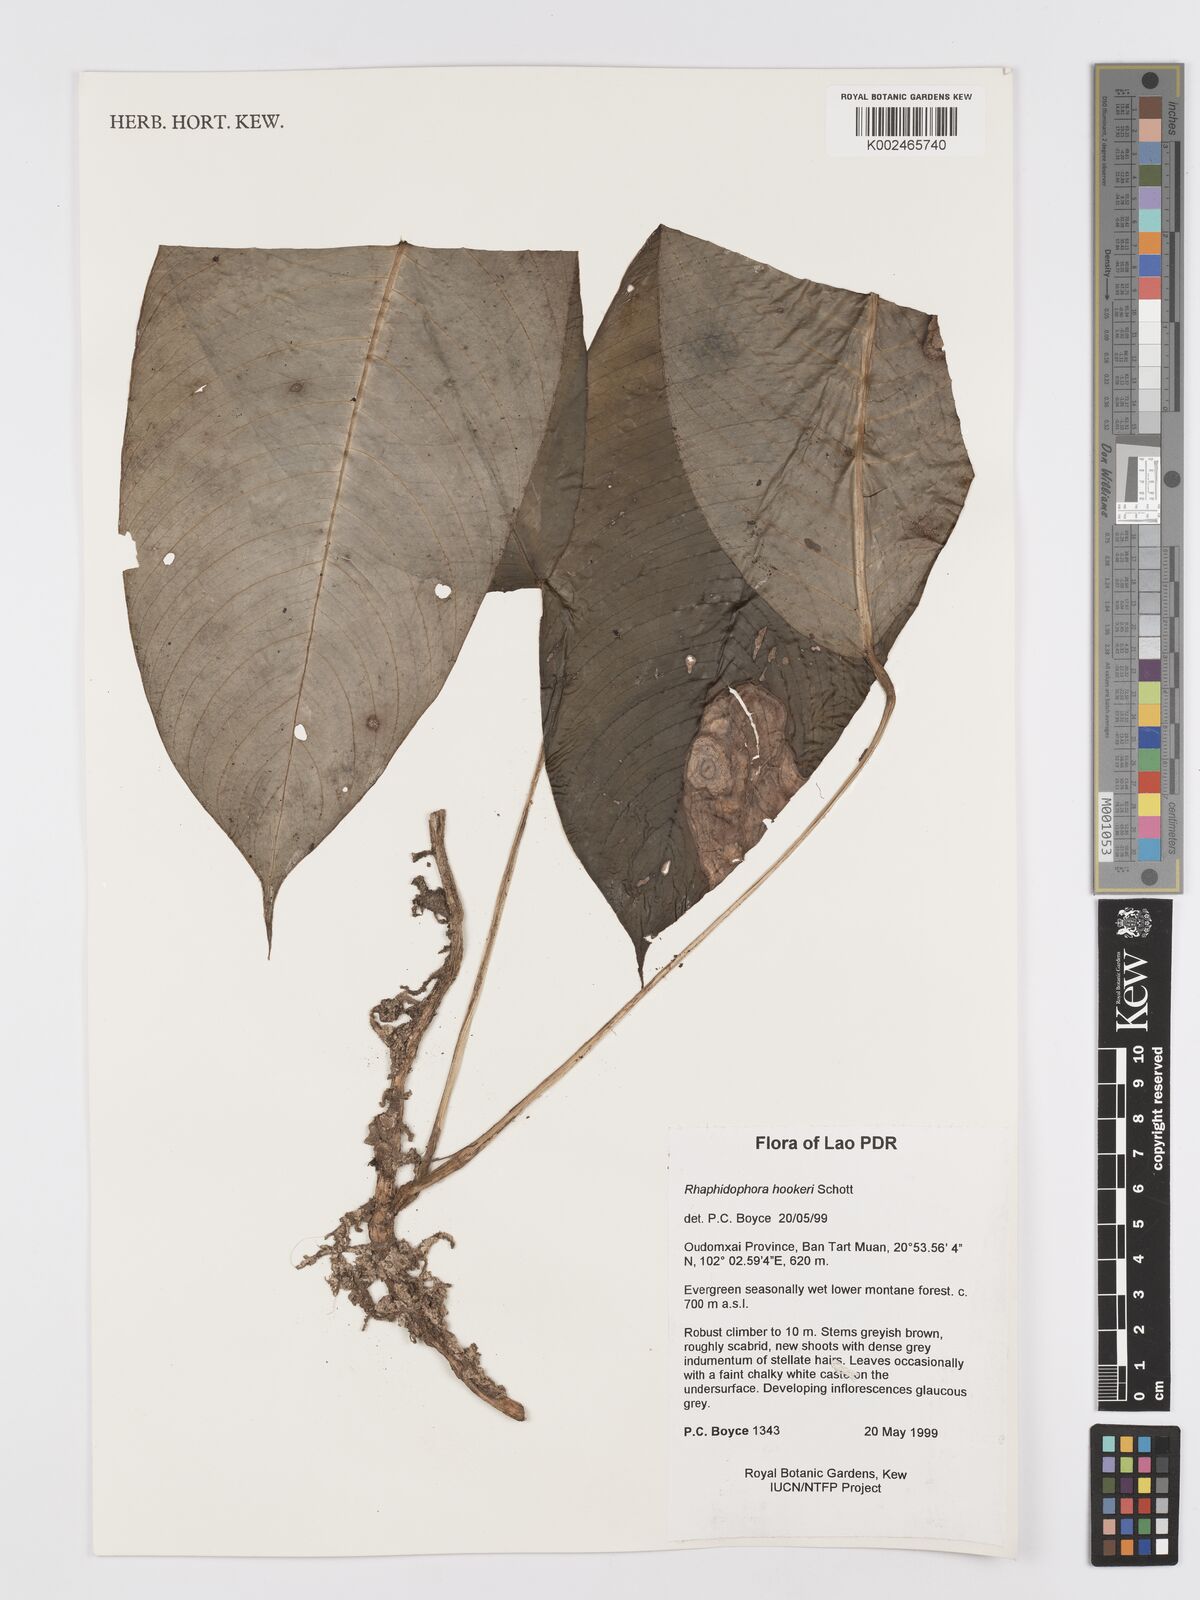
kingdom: Plantae
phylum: Tracheophyta
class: Liliopsida
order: Alismatales
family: Araceae
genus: Rhaphidophora
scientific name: Rhaphidophora hookeri
